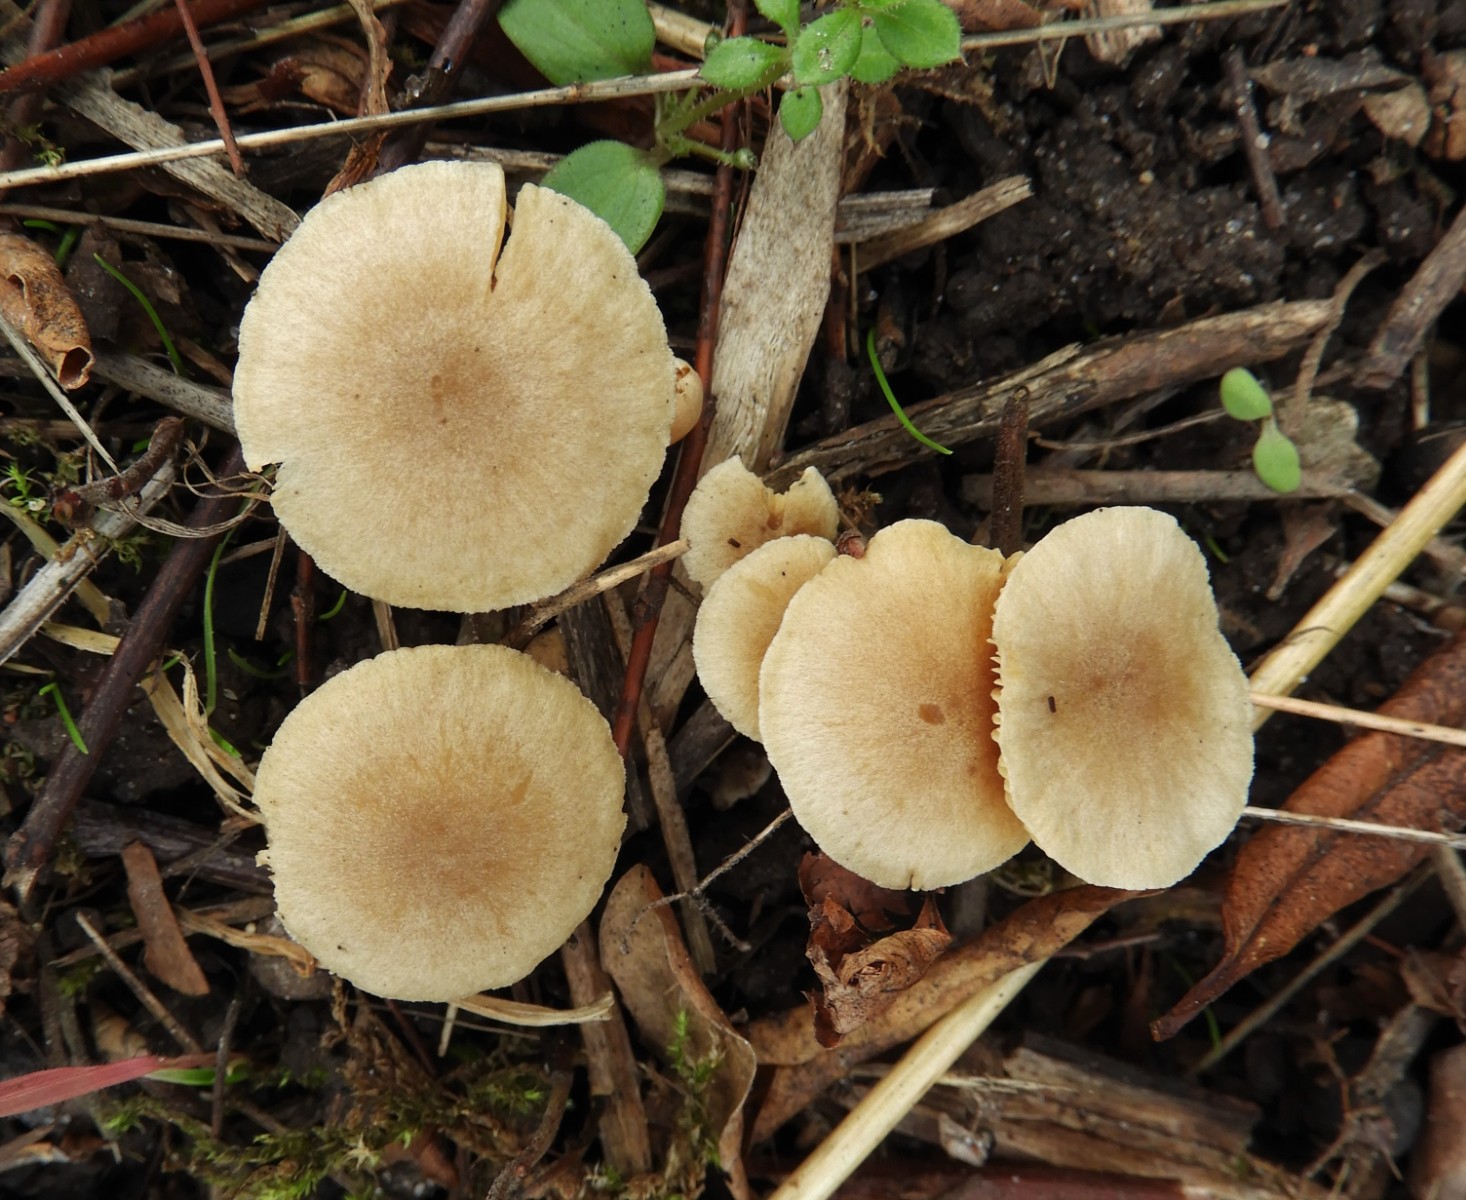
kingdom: Fungi
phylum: Basidiomycota
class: Agaricomycetes
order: Agaricales
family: Tubariaceae
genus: Tubaria
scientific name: Tubaria dispersa
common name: tjørne-fnughat
